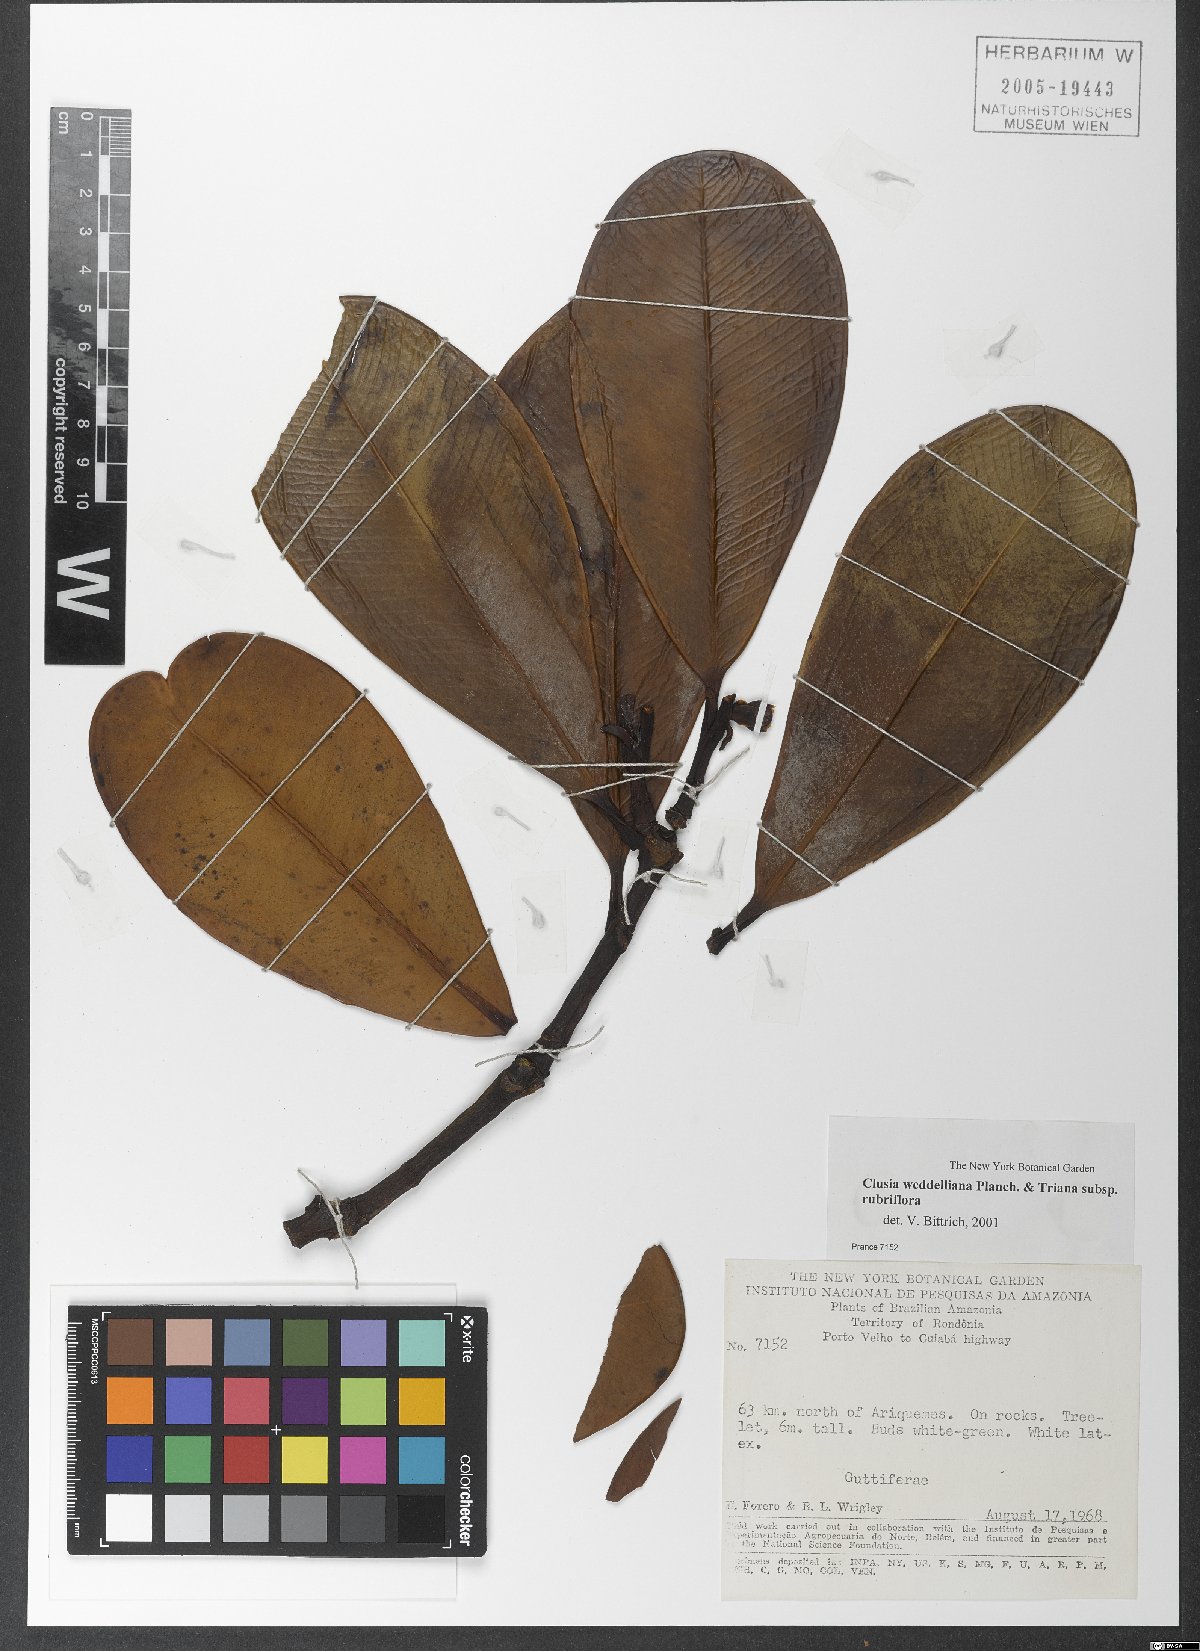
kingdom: Plantae
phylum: Tracheophyta
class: Magnoliopsida
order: Malpighiales
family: Clusiaceae
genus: Clusia
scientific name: Clusia weddelliana
